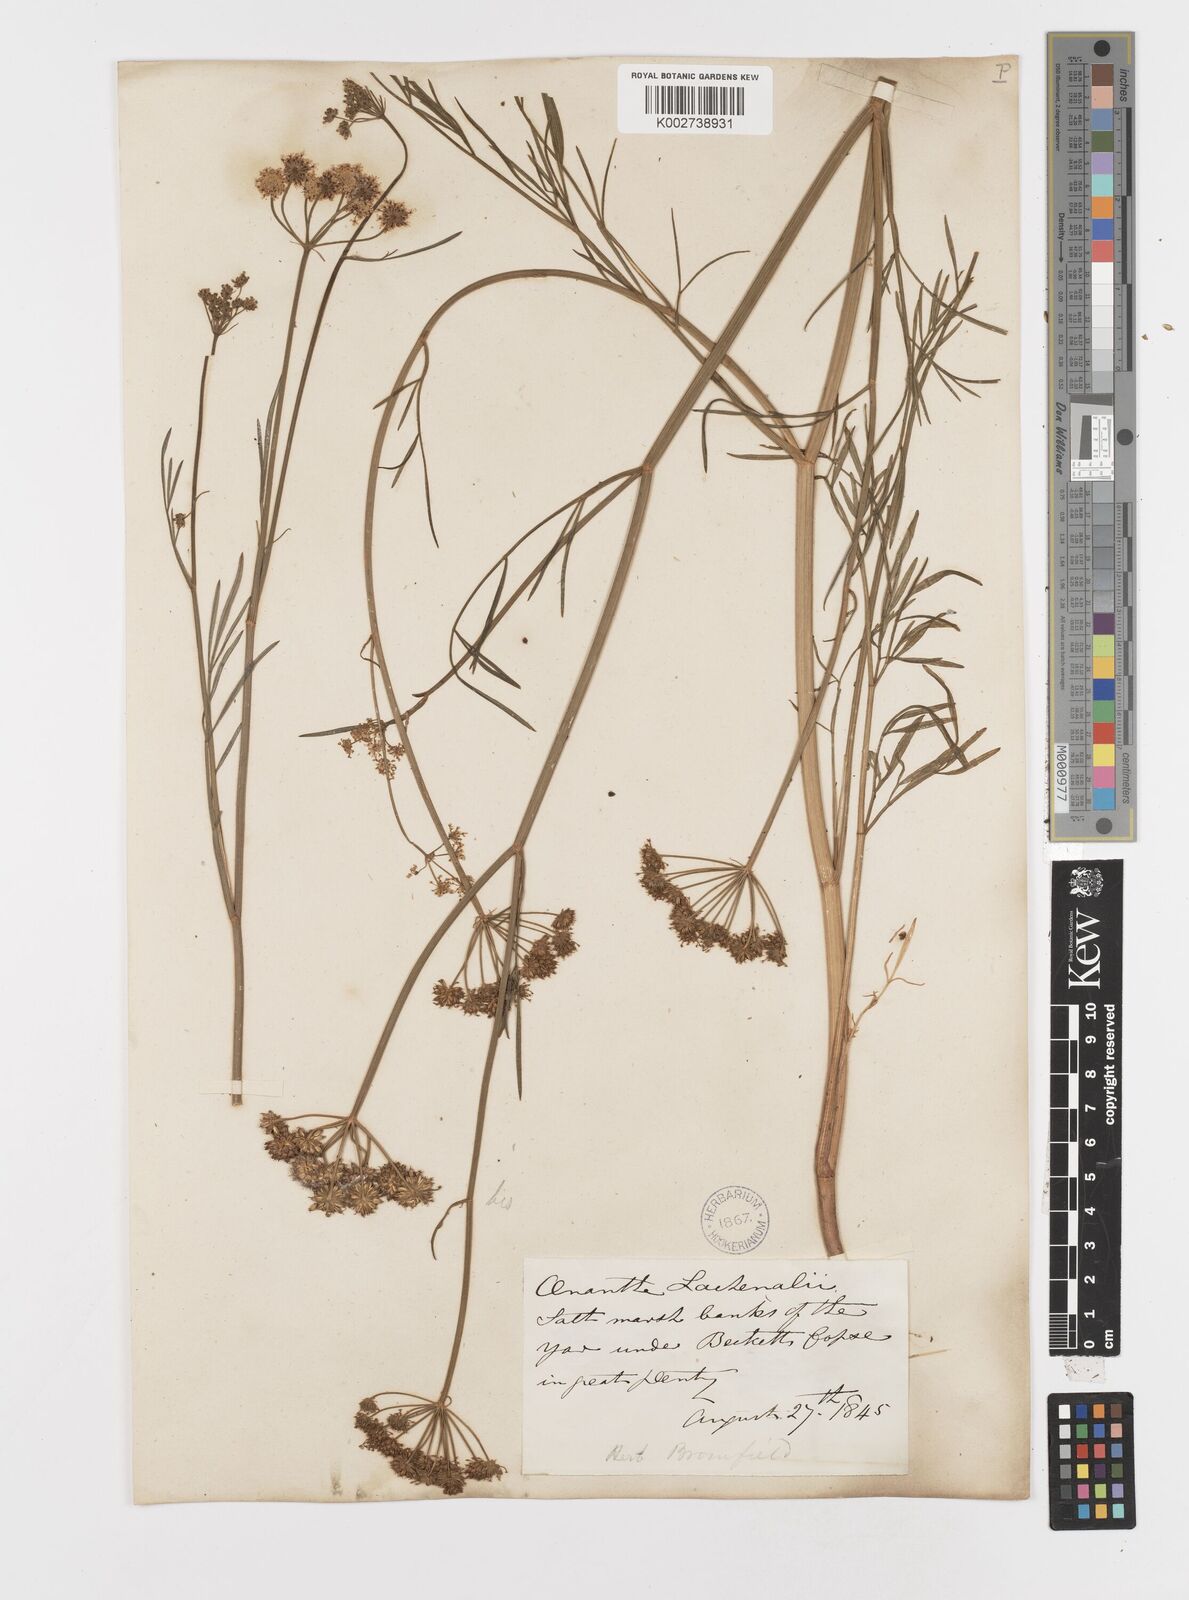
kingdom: Plantae
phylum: Tracheophyta
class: Magnoliopsida
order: Apiales
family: Apiaceae
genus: Oenanthe
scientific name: Oenanthe lachenalii
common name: Parsley water-dropwort
